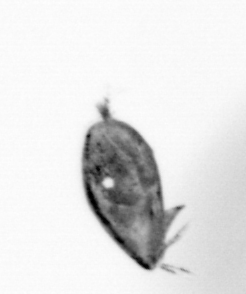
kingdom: Animalia
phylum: Arthropoda
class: Maxillopoda
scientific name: Maxillopoda
